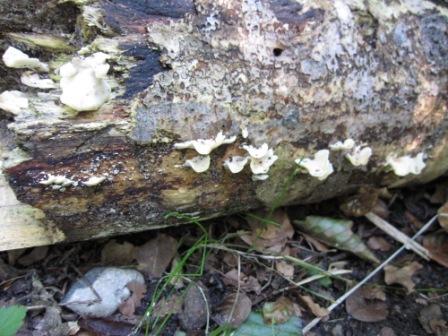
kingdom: Fungi
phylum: Basidiomycota
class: Agaricomycetes
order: Polyporales
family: Steccherinaceae
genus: Antrodiella
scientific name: Antrodiella faginea
